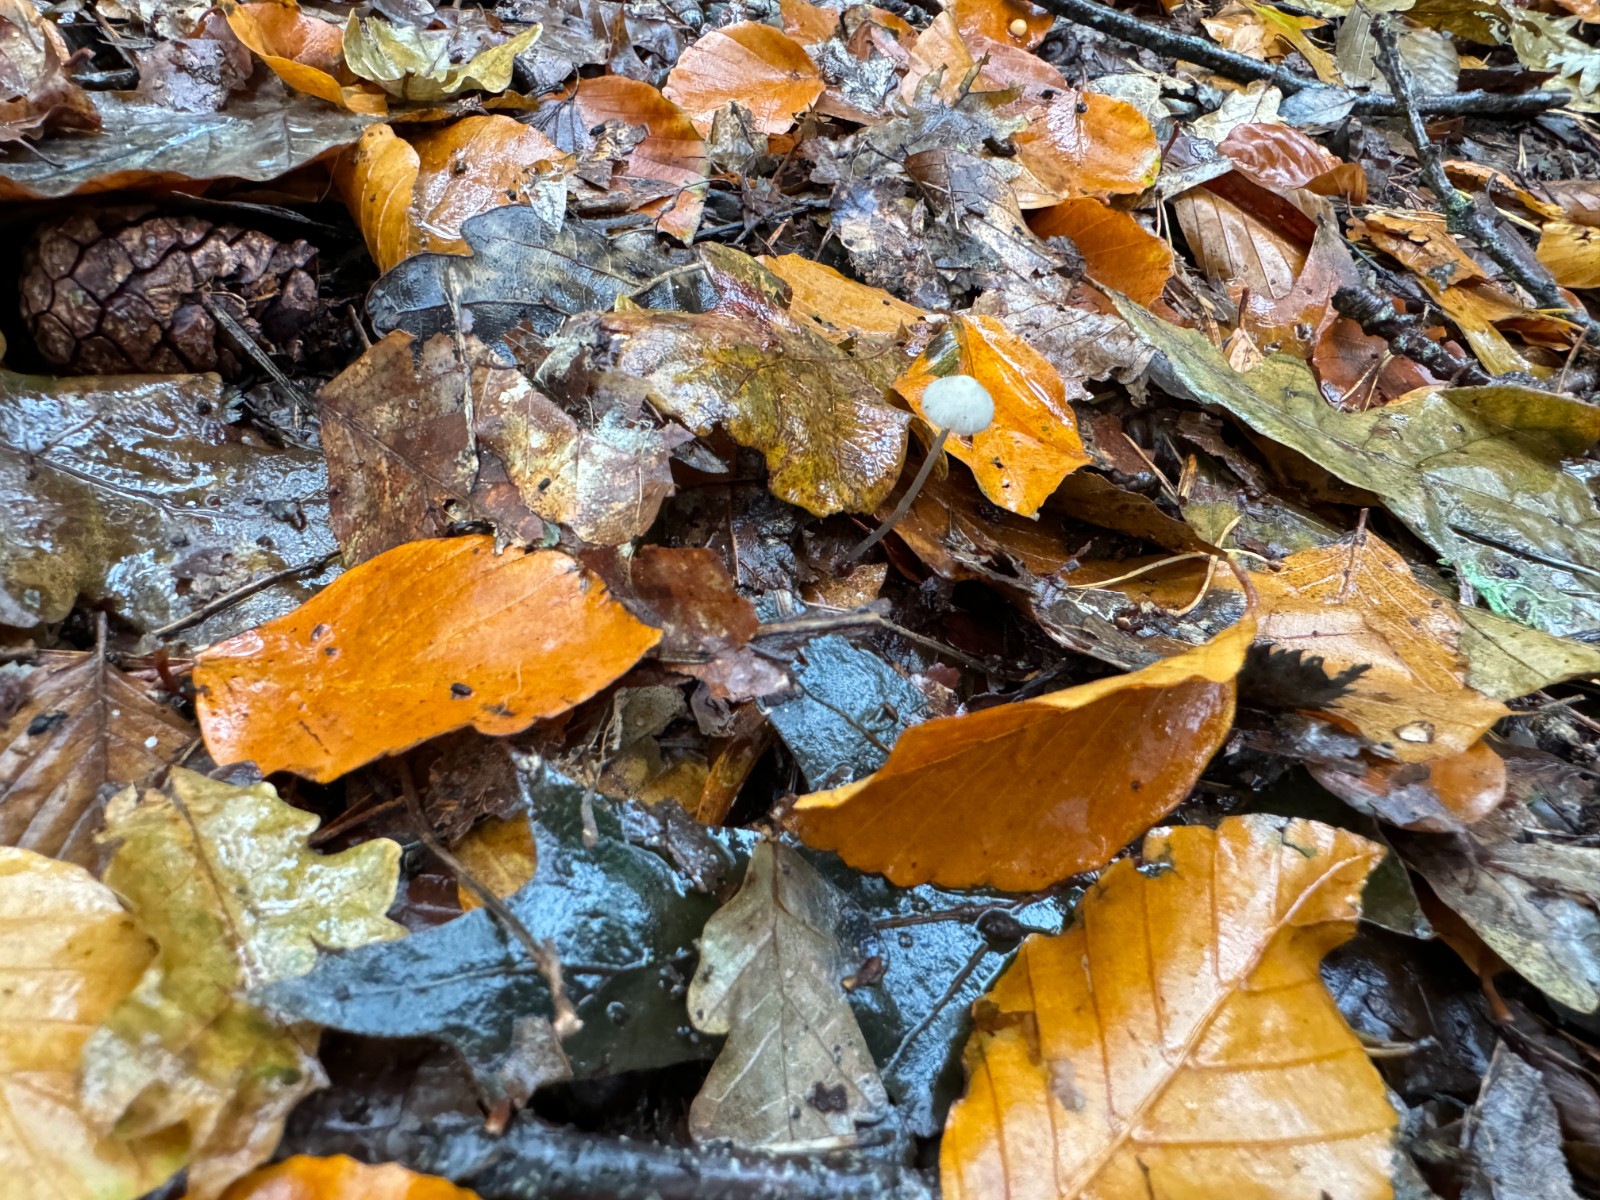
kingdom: Fungi
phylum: Basidiomycota
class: Agaricomycetes
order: Agaricales
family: Mycenaceae
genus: Mycena
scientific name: Mycena
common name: huesvamp
